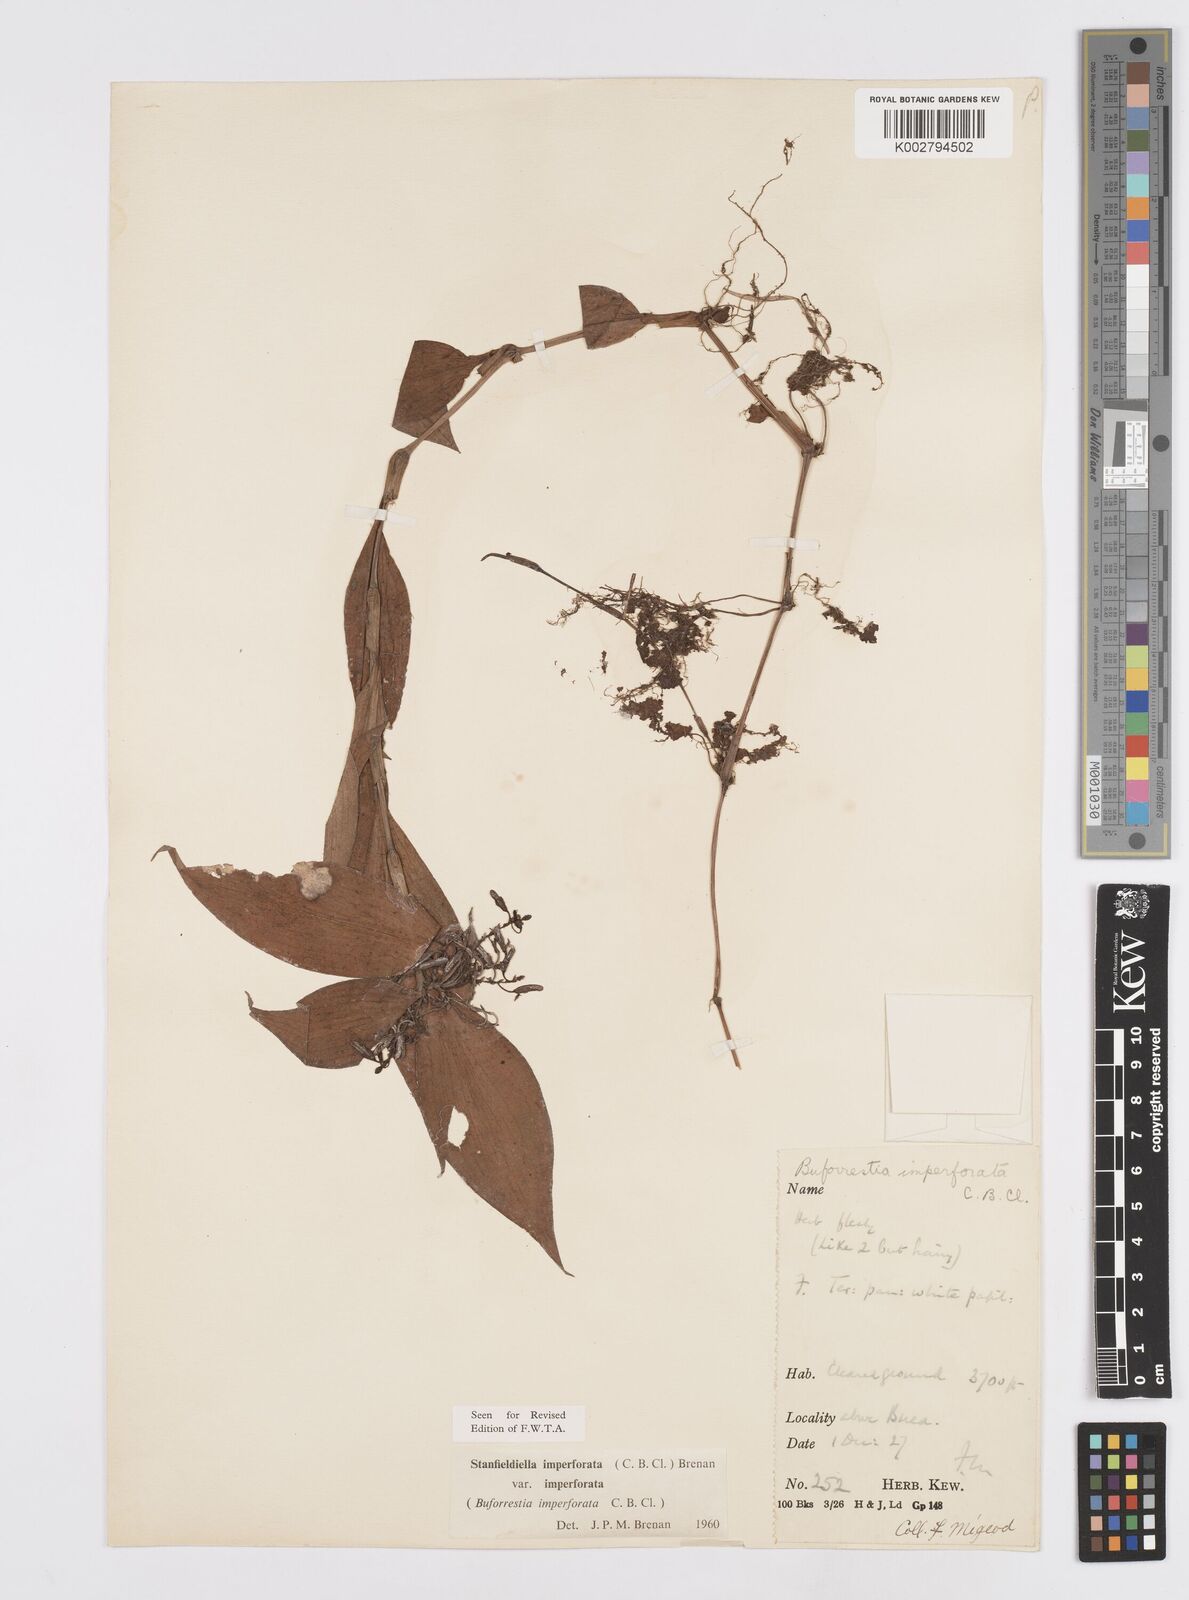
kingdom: Plantae
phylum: Tracheophyta
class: Liliopsida
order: Commelinales
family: Commelinaceae
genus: Stanfieldiella
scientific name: Stanfieldiella imperforata
